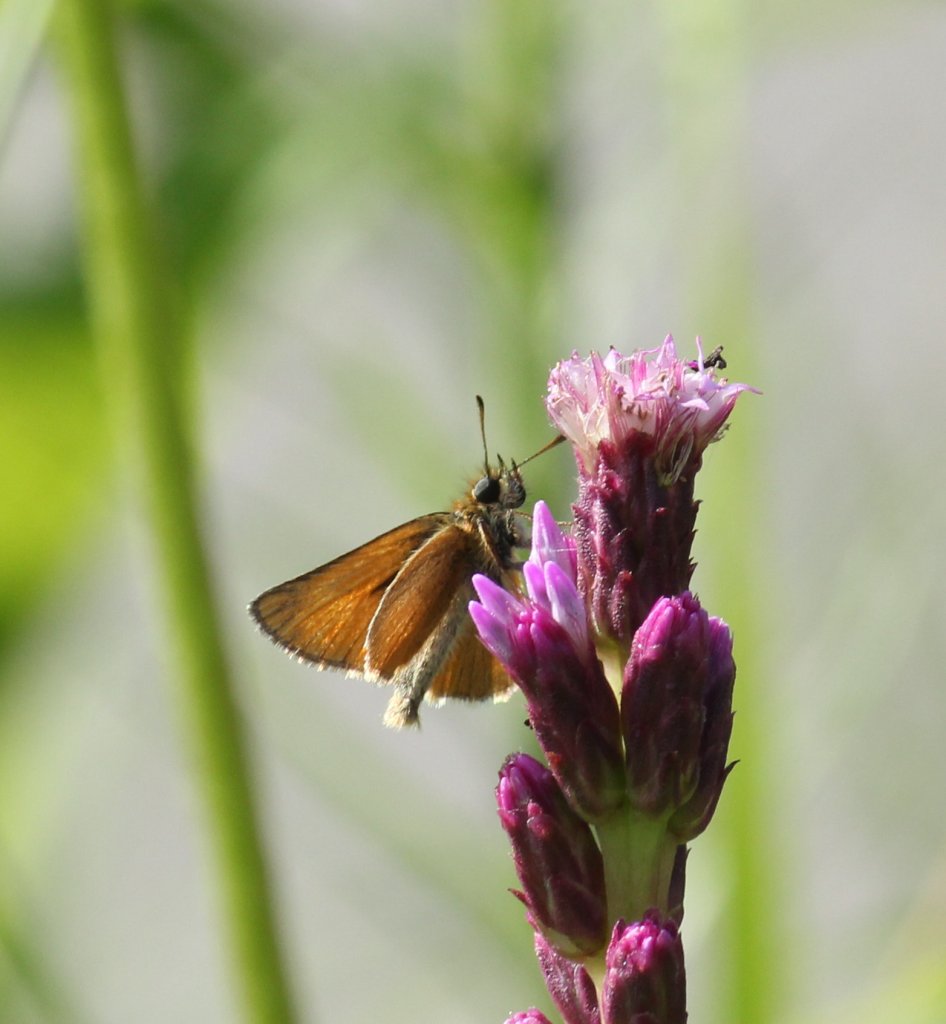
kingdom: Animalia
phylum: Arthropoda
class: Insecta
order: Lepidoptera
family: Hesperiidae
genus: Thymelicus
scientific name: Thymelicus lineola
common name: European Skipper
